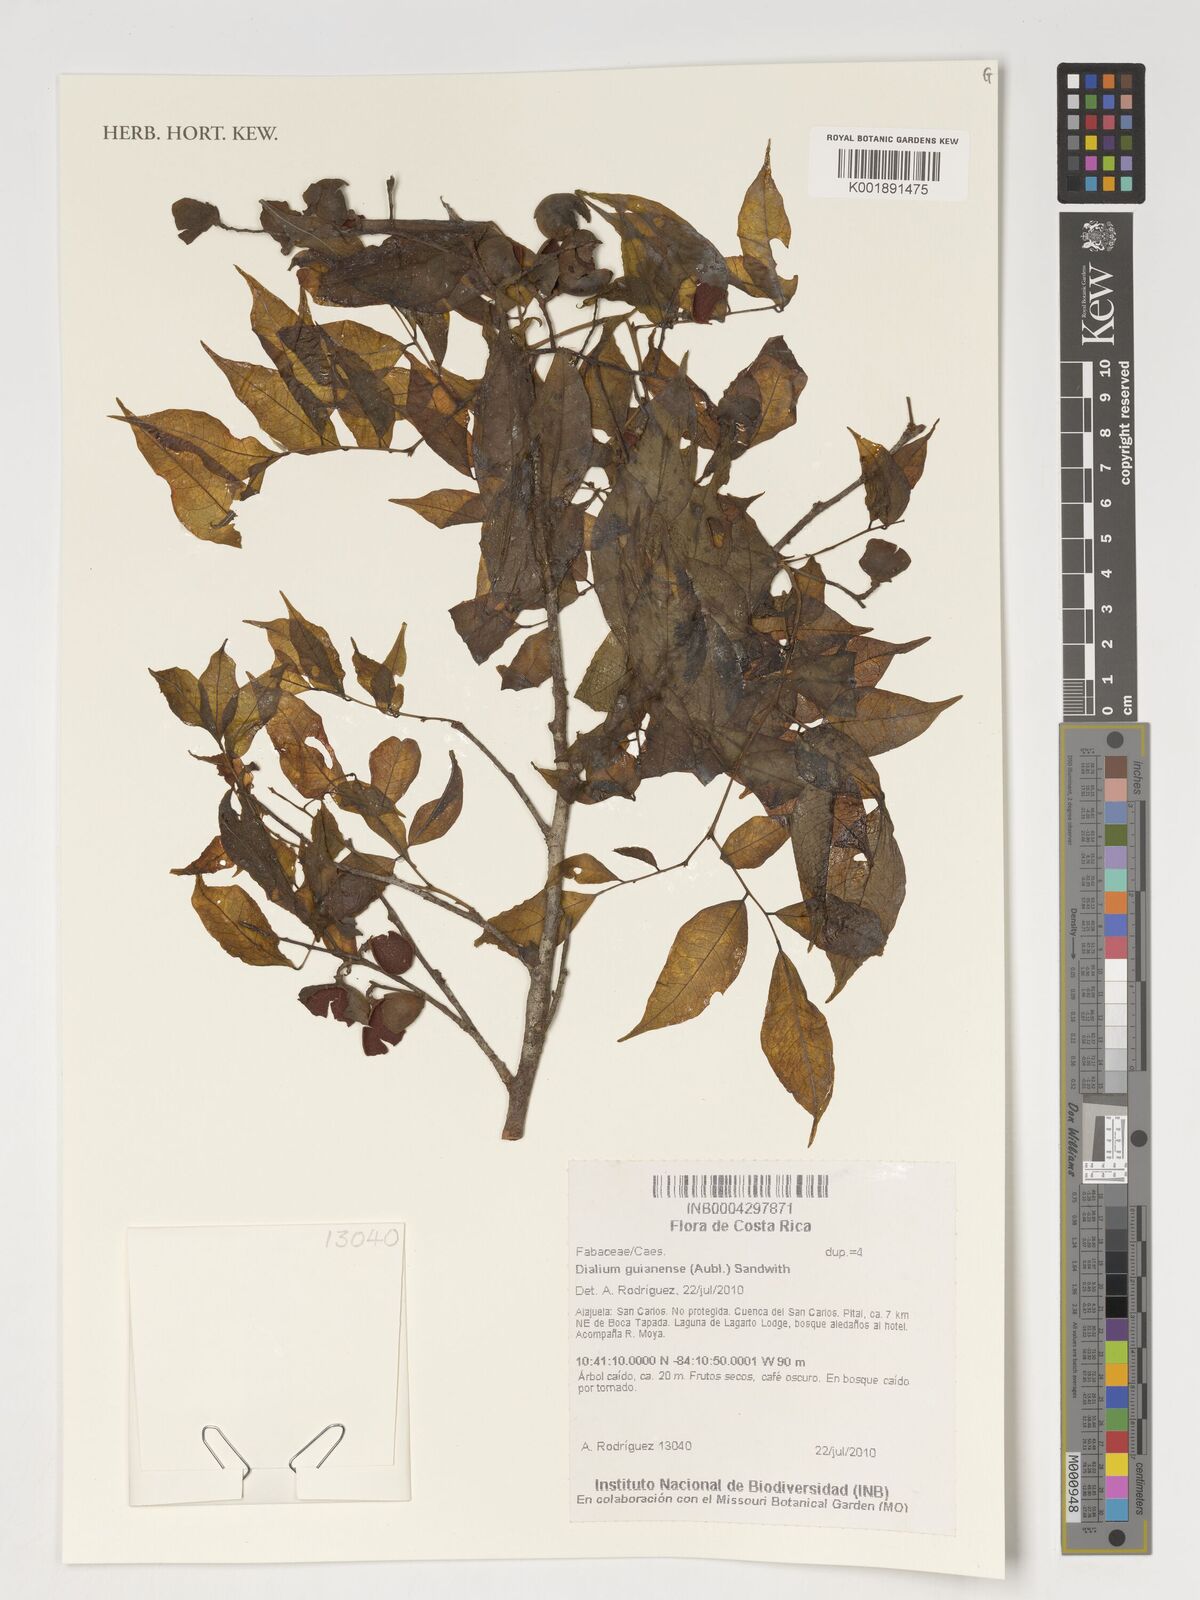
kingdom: Plantae
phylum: Tracheophyta
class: Magnoliopsida
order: Fabales
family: Fabaceae
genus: Dialium
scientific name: Dialium guianense
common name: Ironwood
